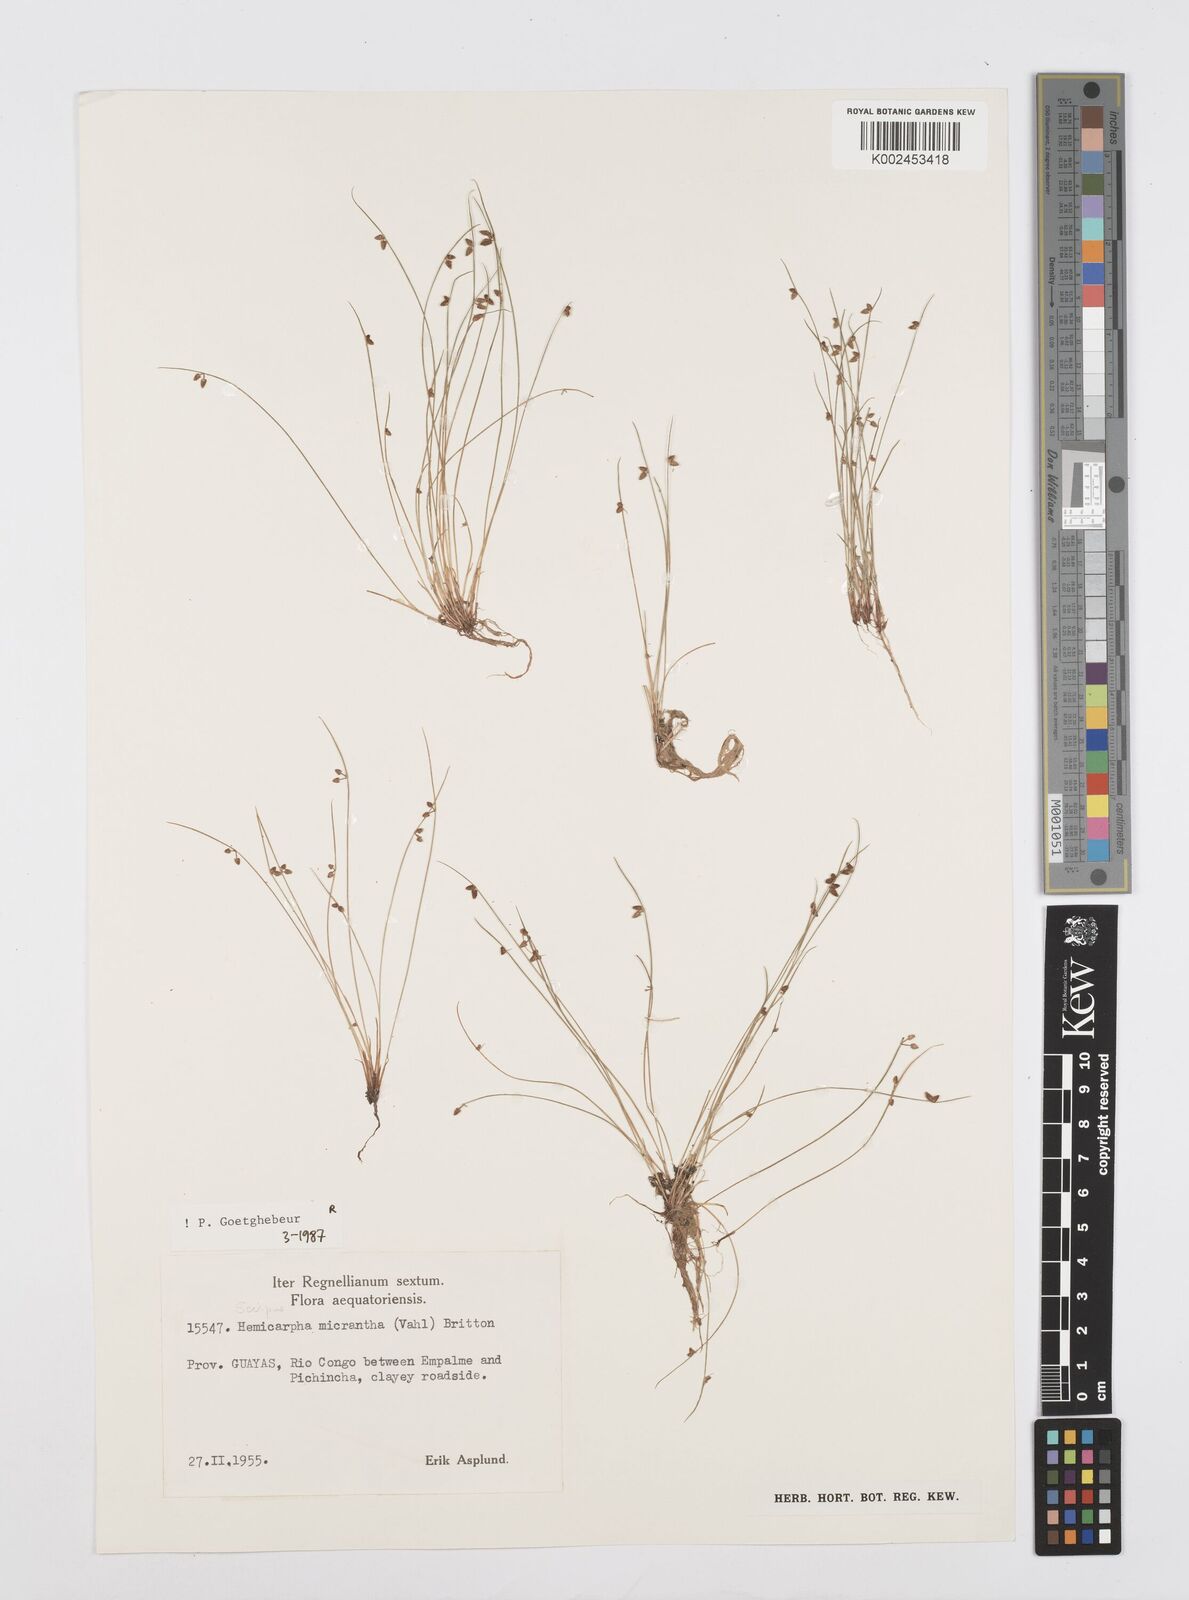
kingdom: Plantae
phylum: Tracheophyta
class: Liliopsida
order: Poales
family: Cyperaceae
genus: Cyperus
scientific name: Cyperus dentatus
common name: Dentate umbrella sedge
